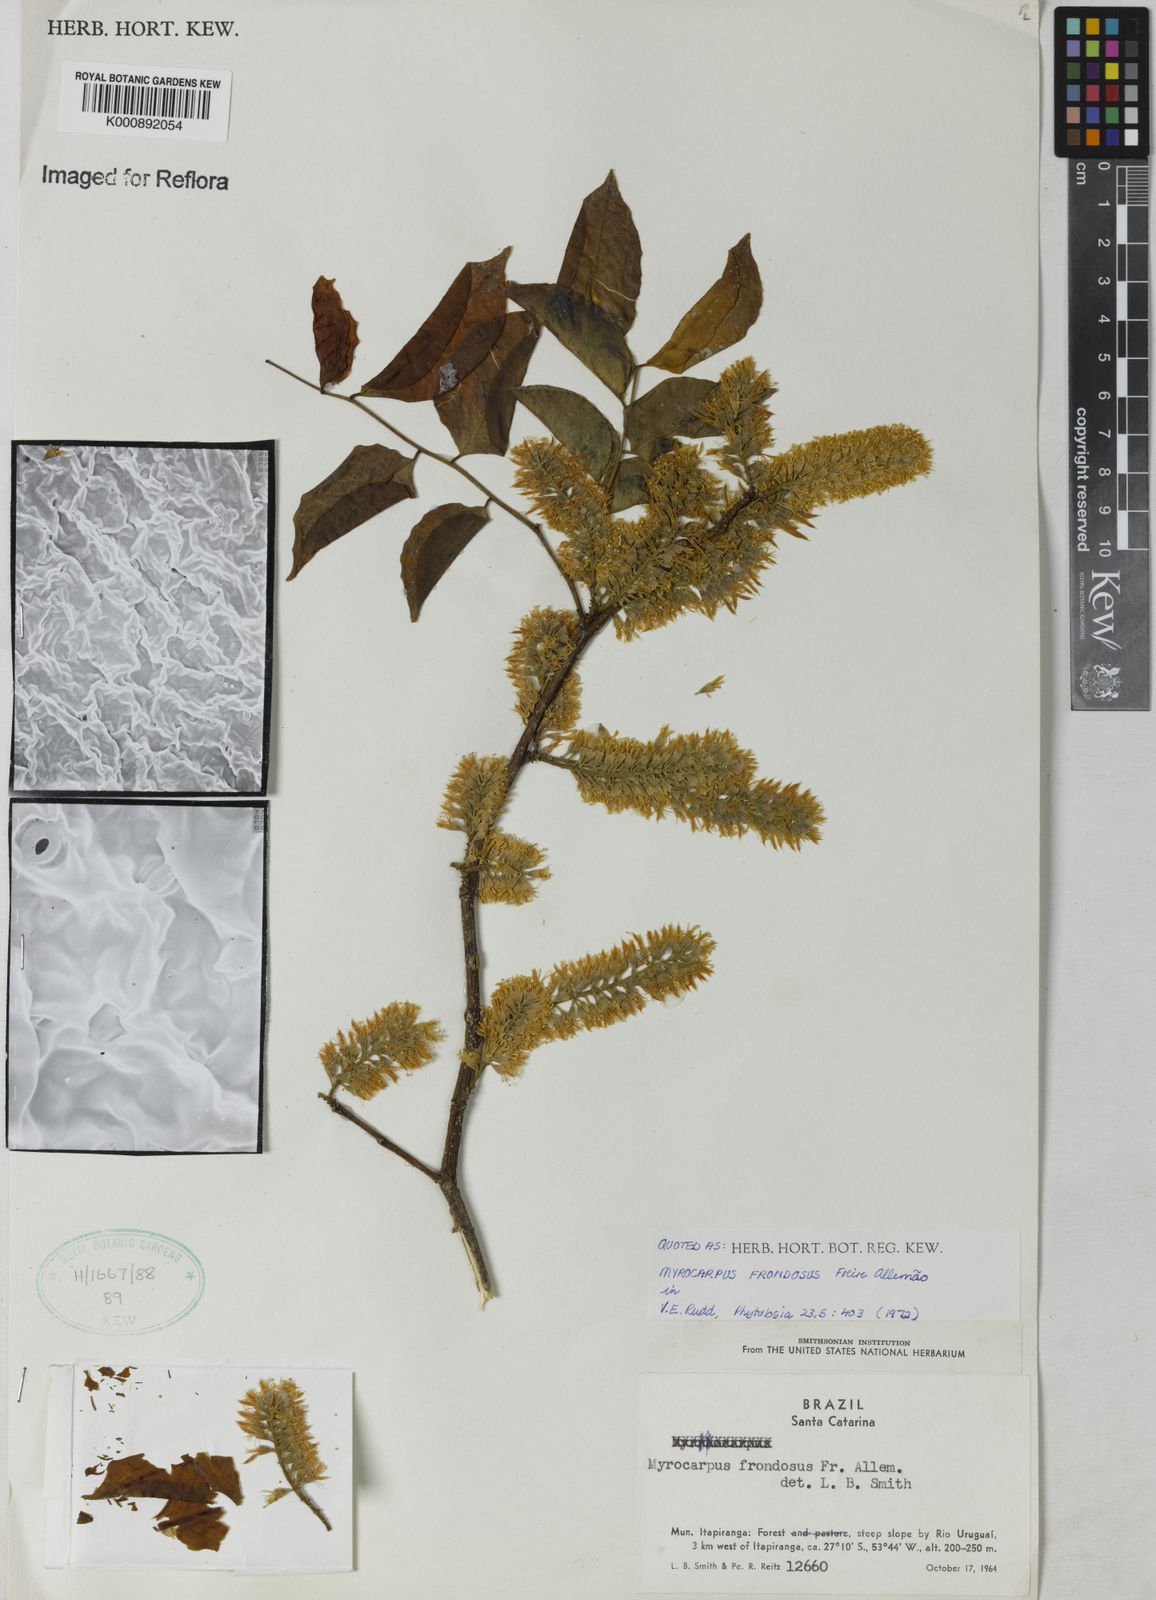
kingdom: Plantae
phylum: Tracheophyta
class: Magnoliopsida
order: Fabales
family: Fabaceae
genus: Myrocarpus
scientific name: Myrocarpus
